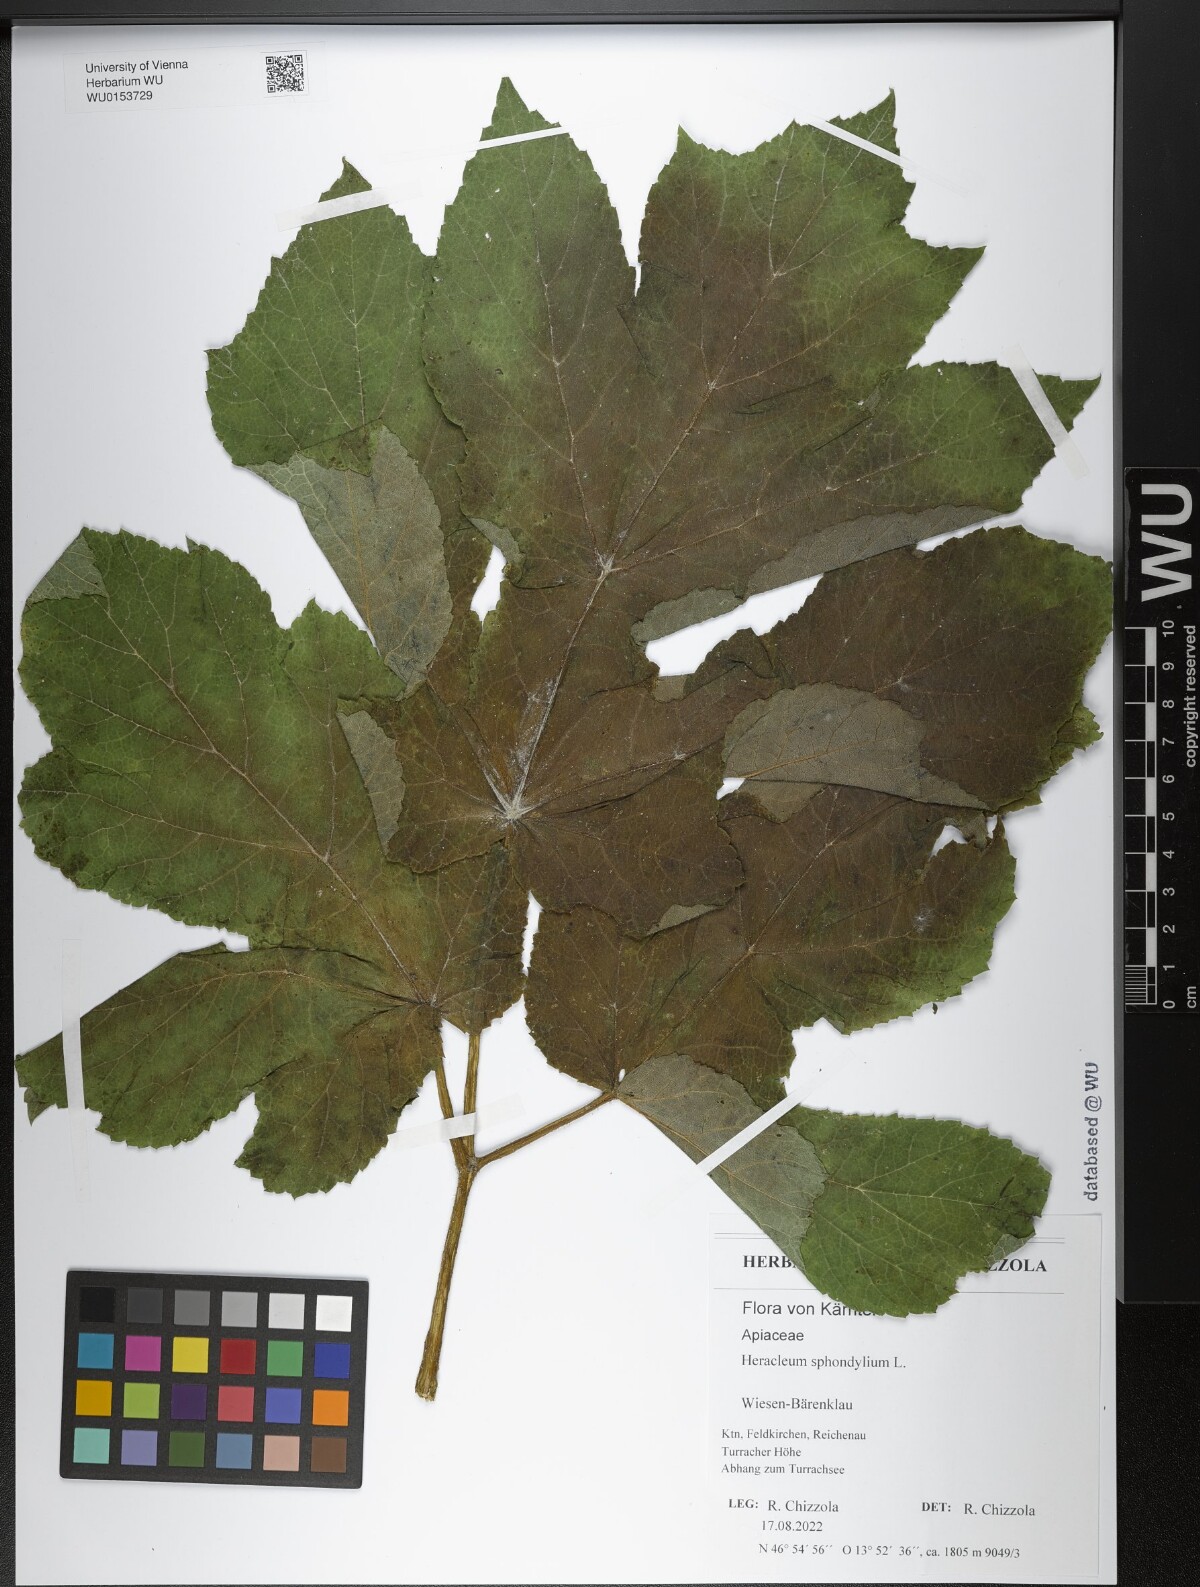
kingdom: Plantae
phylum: Tracheophyta
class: Magnoliopsida
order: Apiales
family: Apiaceae
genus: Heracleum
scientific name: Heracleum sphondylium
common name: Hogweed
